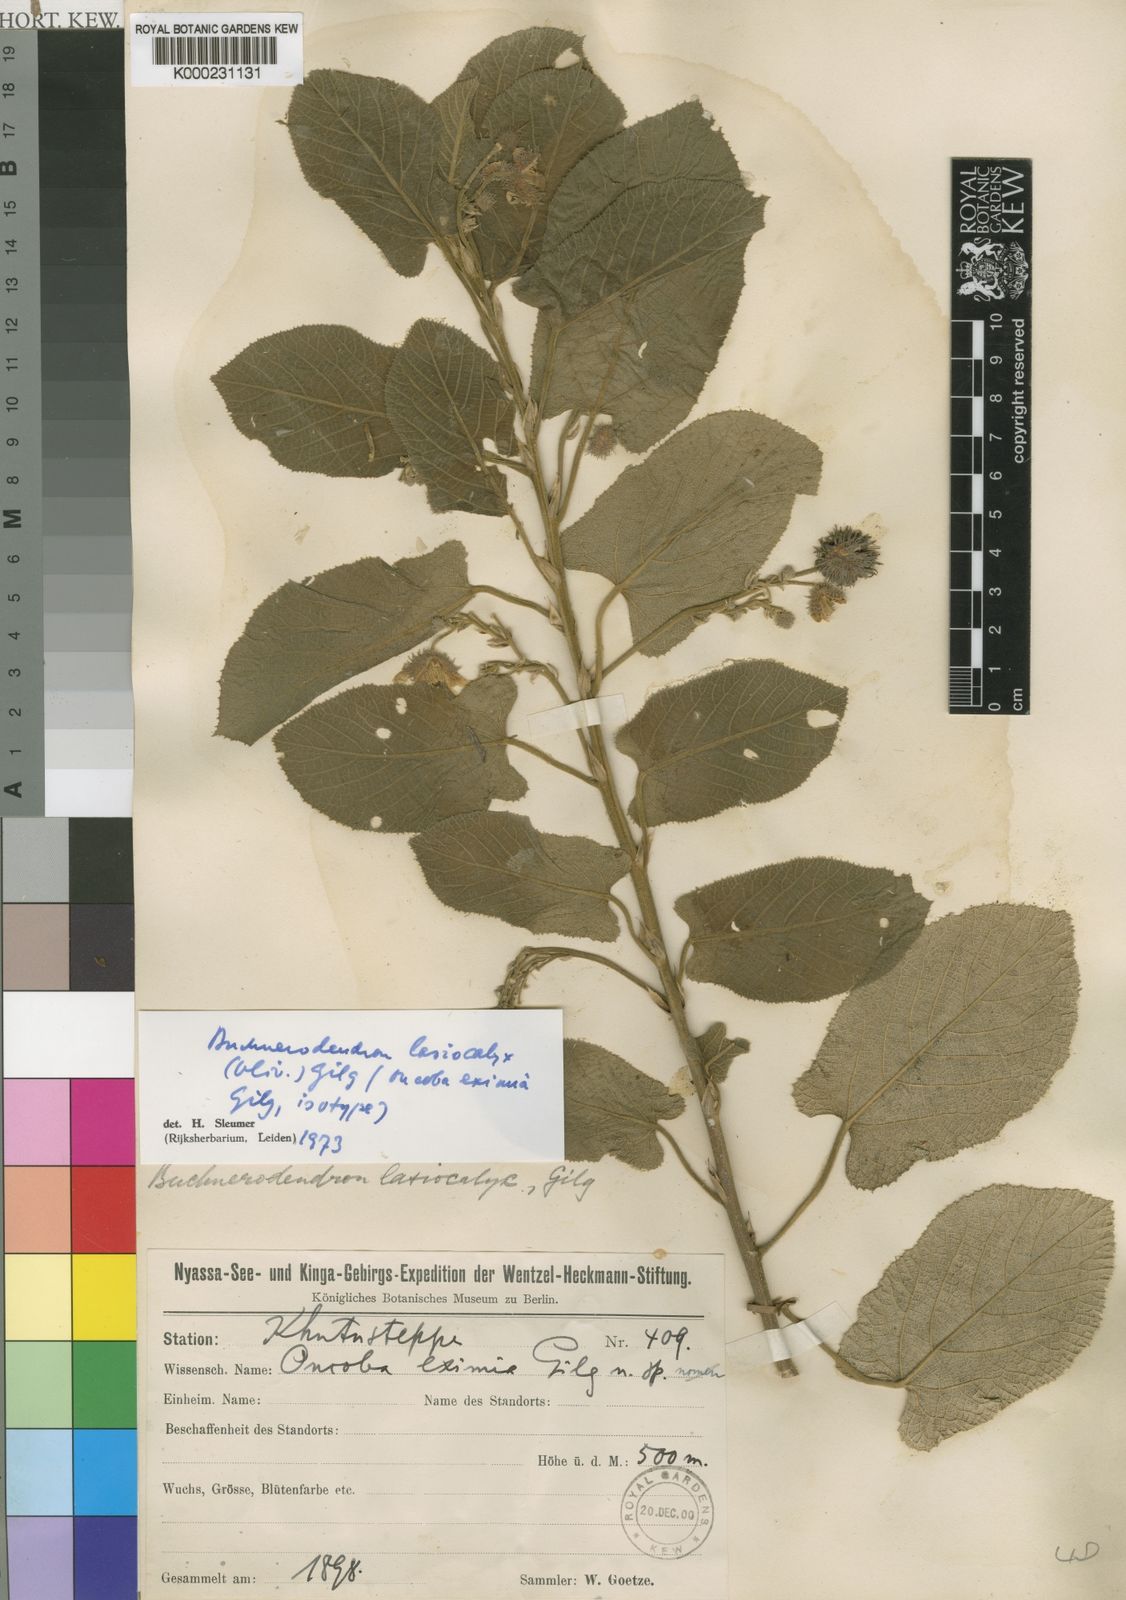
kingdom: Plantae
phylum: Tracheophyta
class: Magnoliopsida
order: Malpighiales
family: Achariaceae
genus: Buchnerodendron
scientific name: Buchnerodendron lasiocalyx
